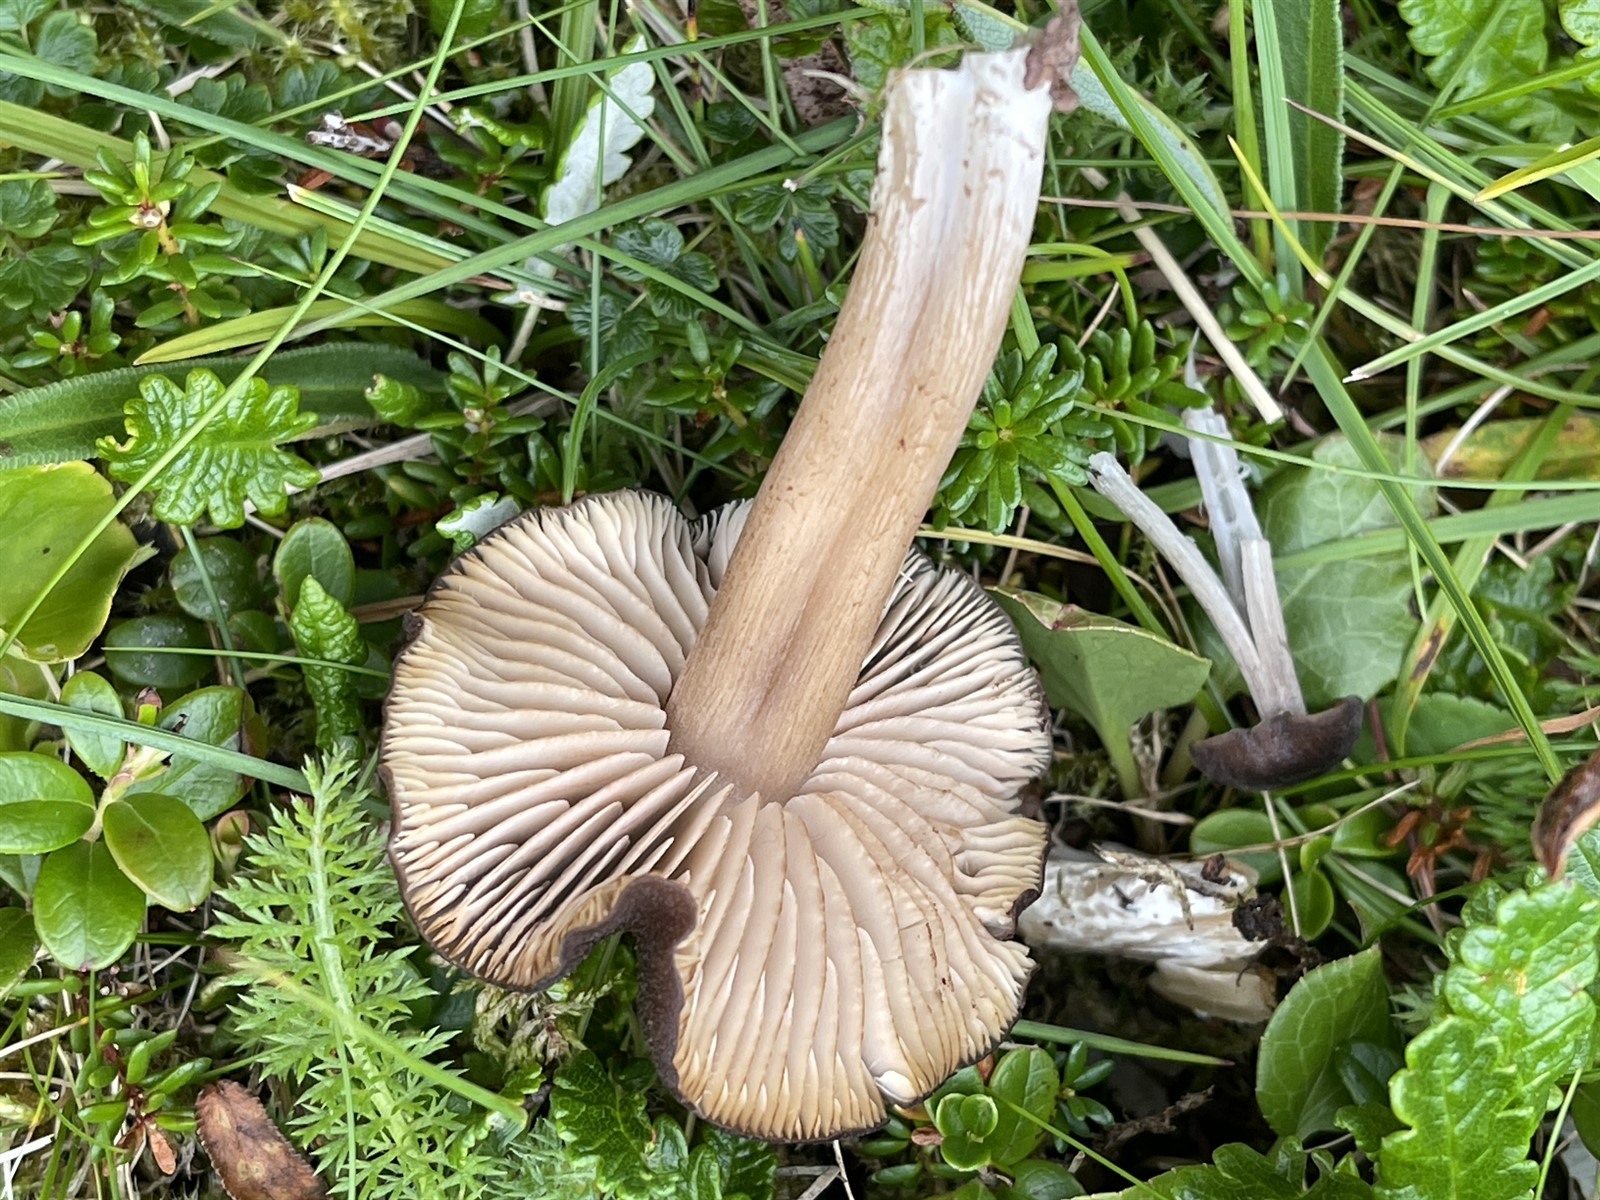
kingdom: Fungi
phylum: Basidiomycota
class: Agaricomycetes
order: Agaricales
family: Entolomataceae
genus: Entoloma
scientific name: Entoloma porphyrogriseum
